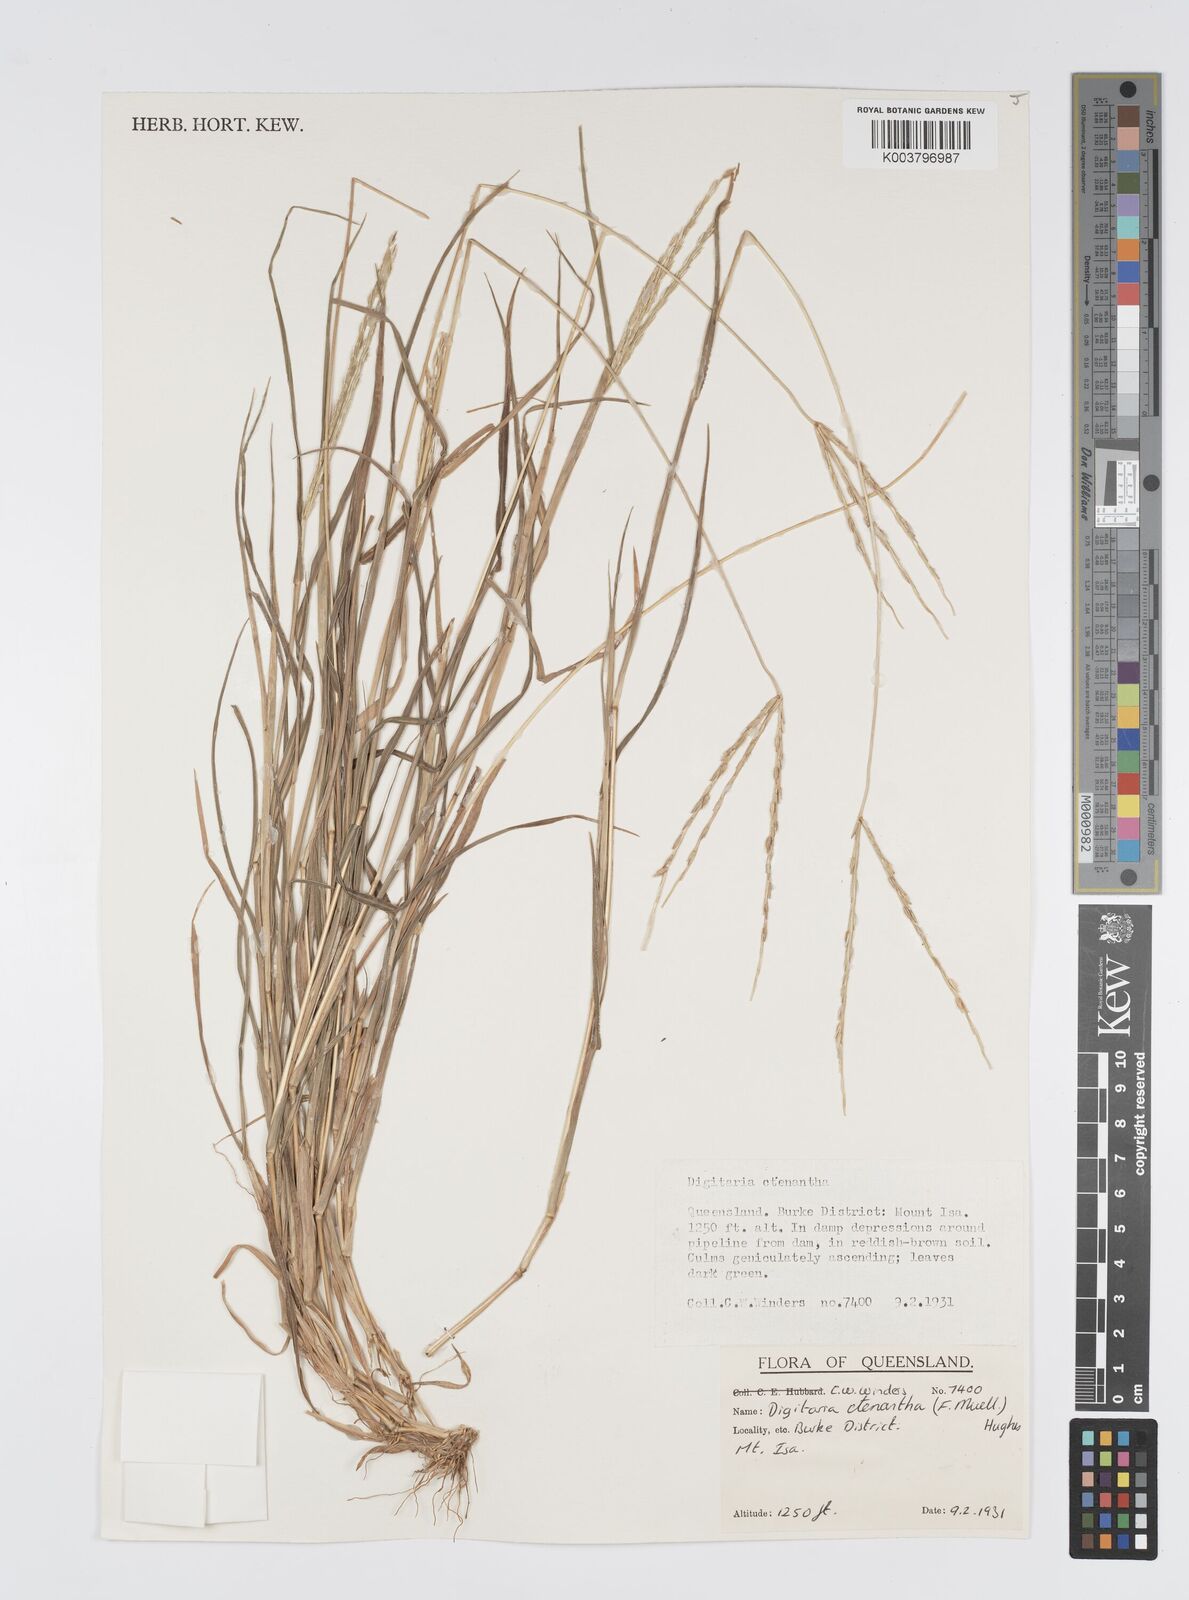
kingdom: Plantae
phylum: Tracheophyta
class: Liliopsida
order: Poales
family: Poaceae
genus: Digitaria
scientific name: Digitaria ctenantha
